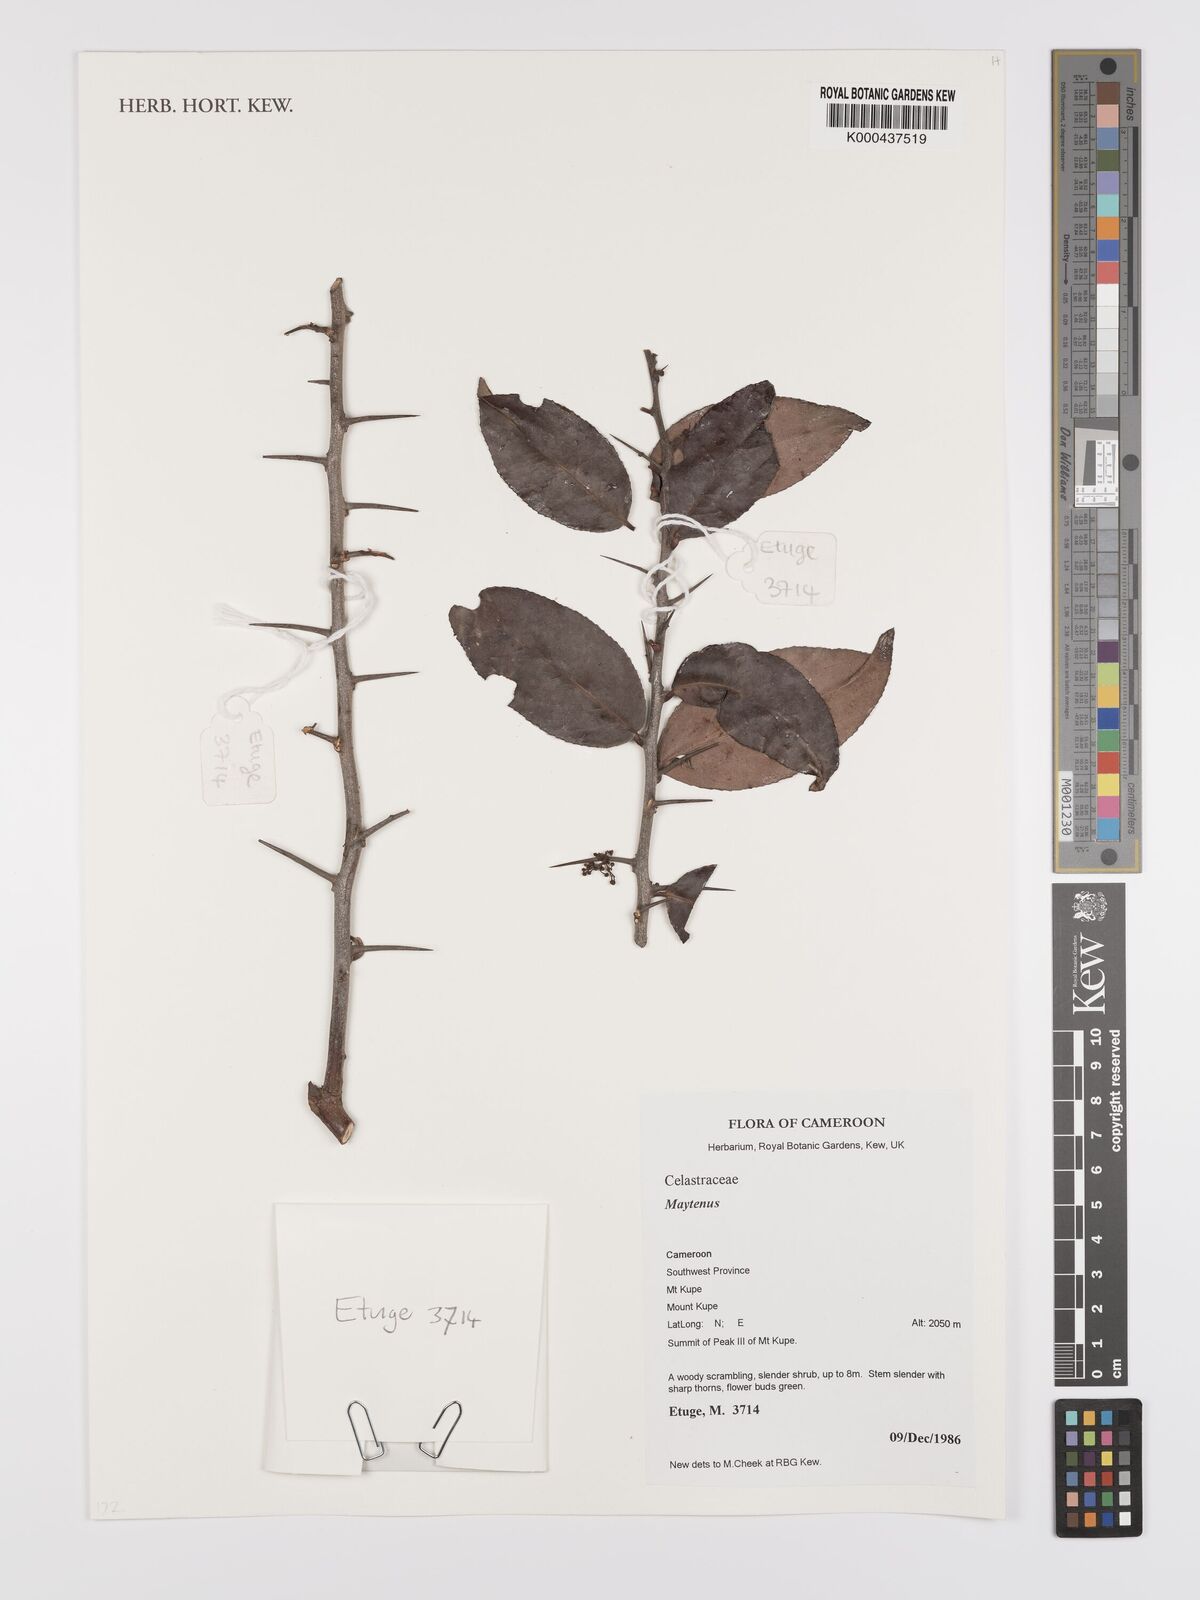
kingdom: Plantae
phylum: Tracheophyta
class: Magnoliopsida
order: Celastrales
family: Celastraceae
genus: Maytenus
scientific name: Maytenus
